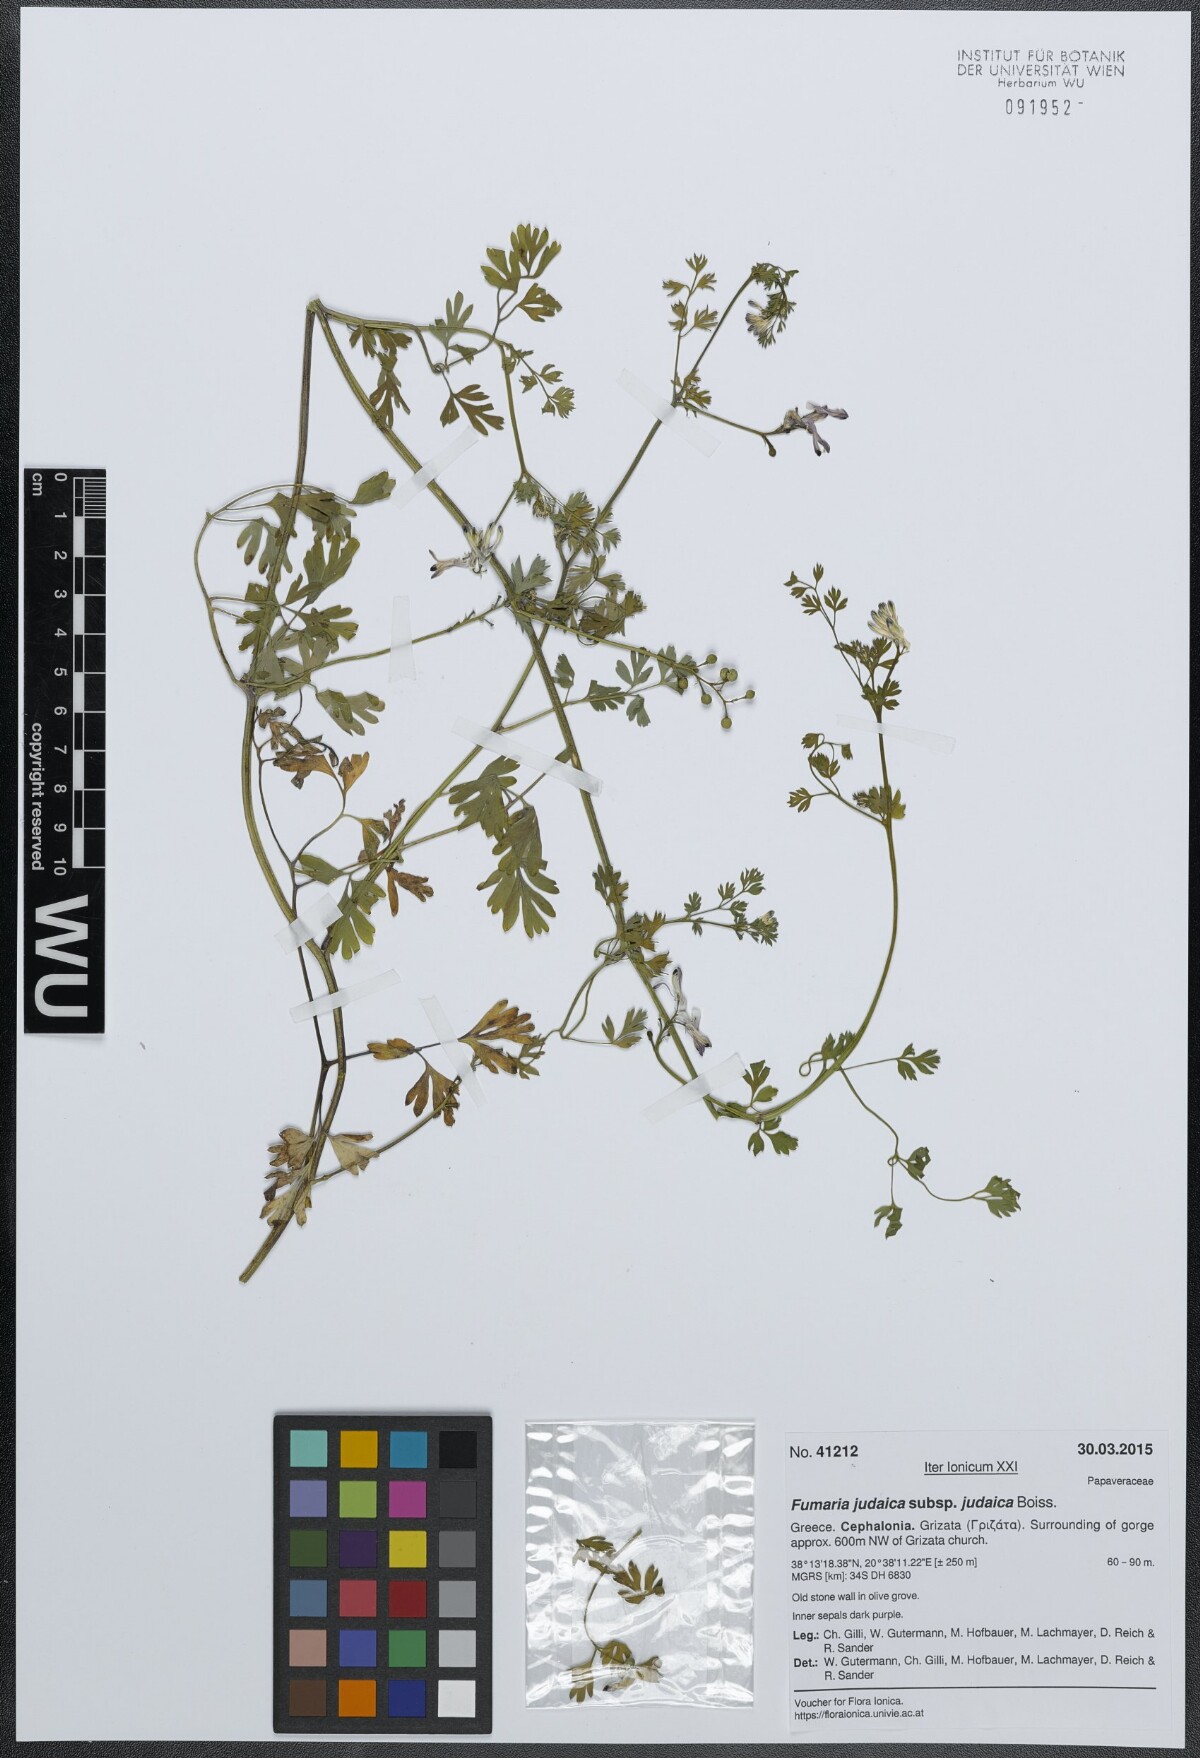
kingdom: Plantae
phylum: Tracheophyta
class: Magnoliopsida
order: Ranunculales
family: Papaveraceae
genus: Fumaria
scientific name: Fumaria judaica
